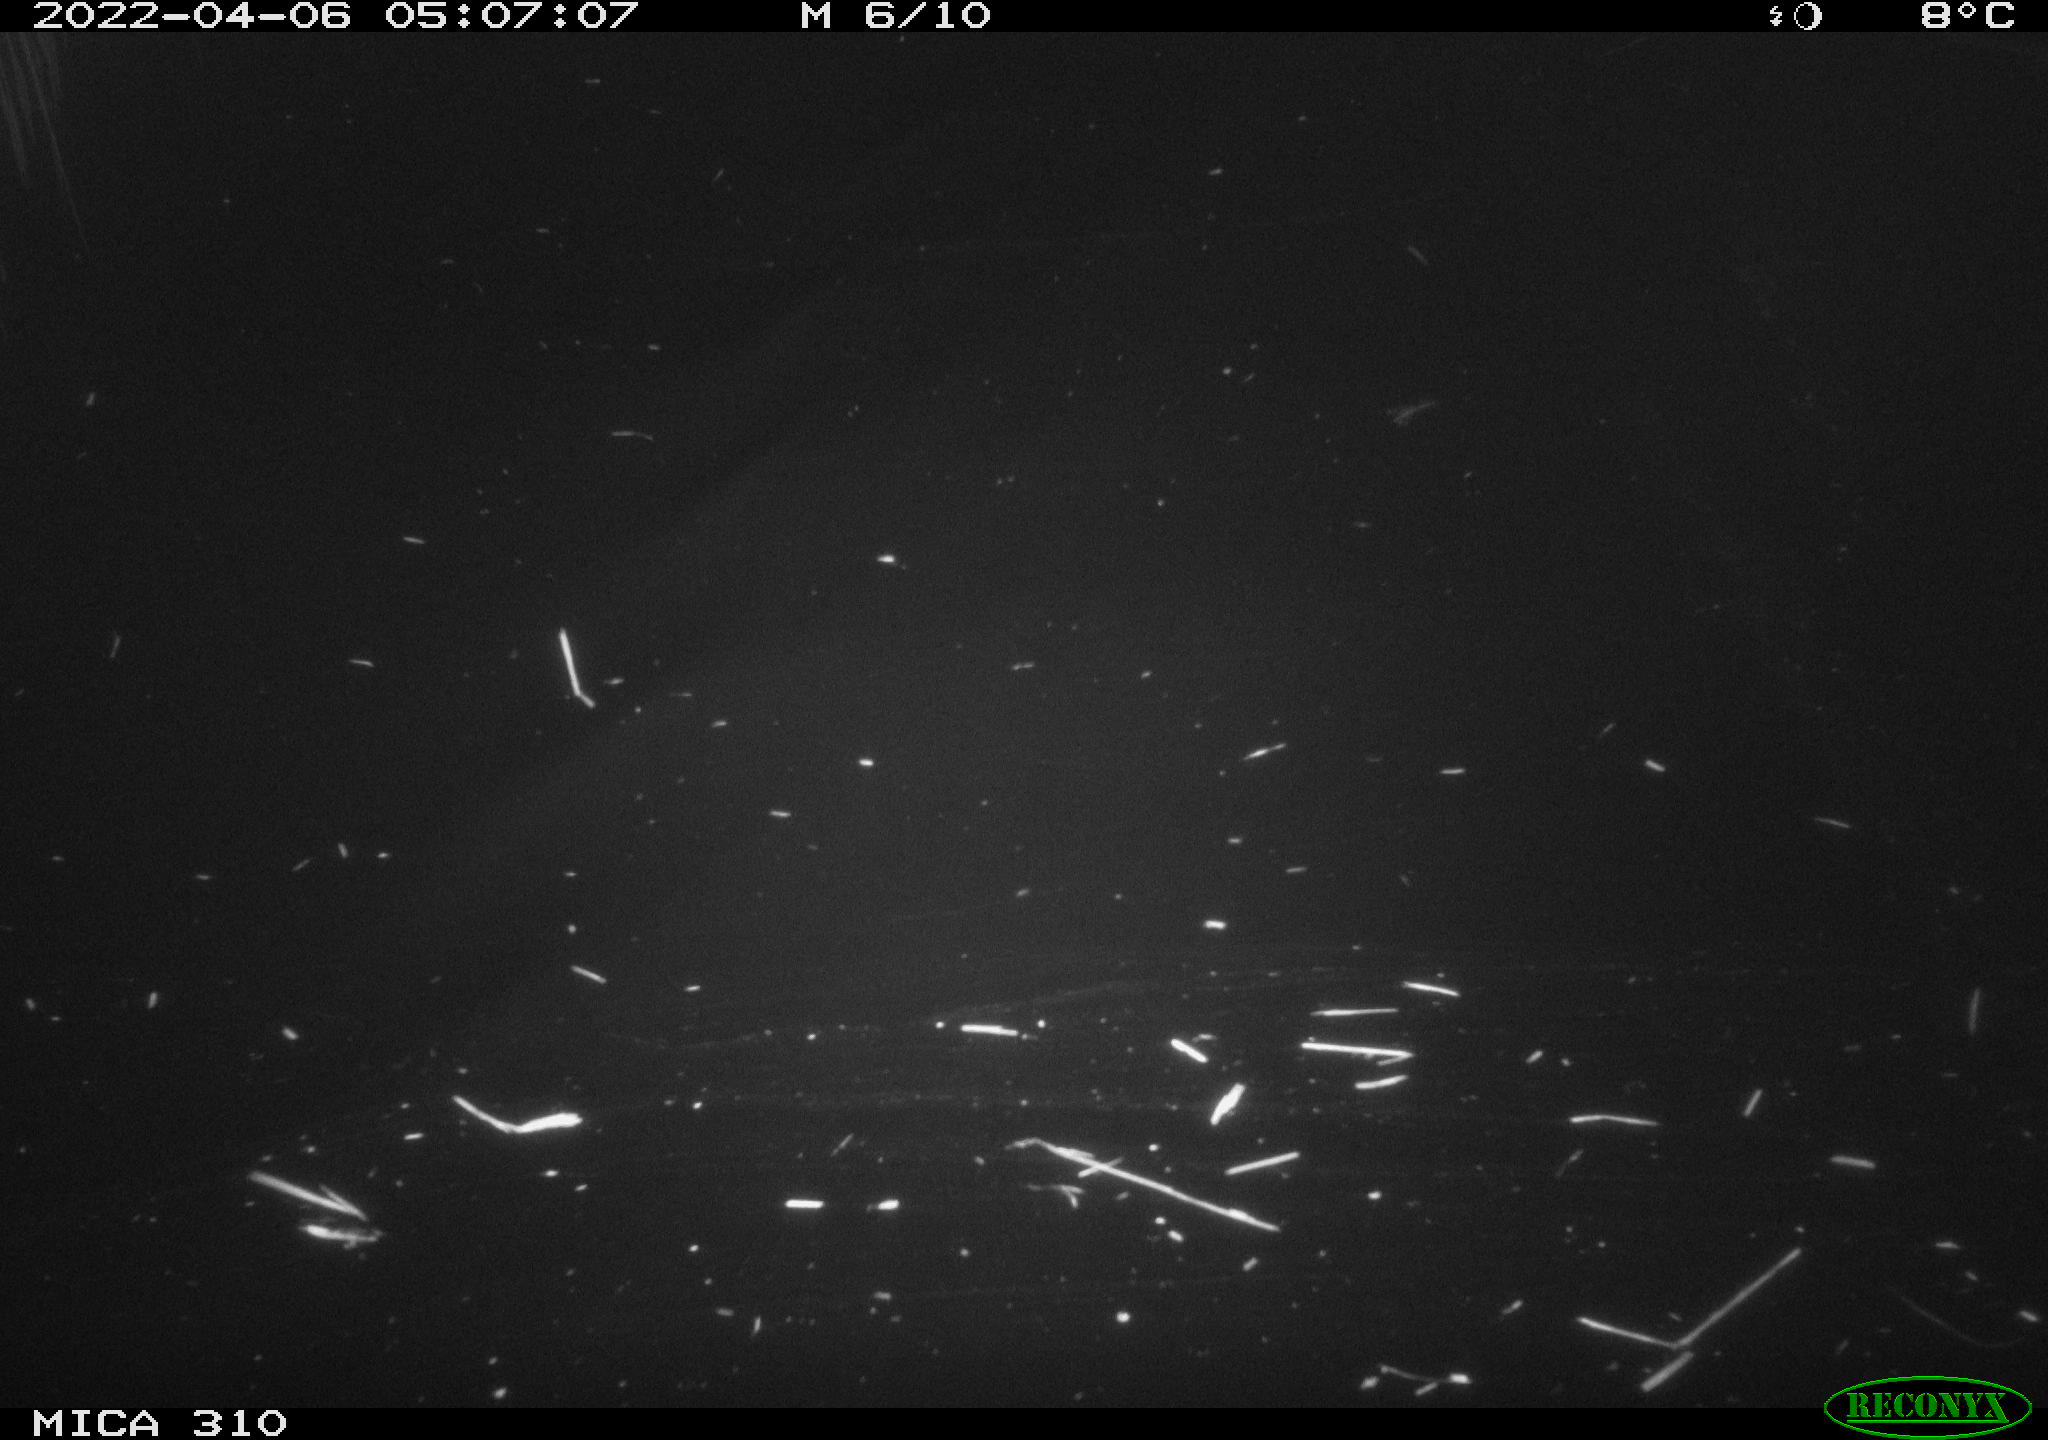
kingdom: Animalia
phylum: Chordata
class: Aves
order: Anseriformes
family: Anatidae
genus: Anas
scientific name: Anas platyrhynchos
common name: Mallard
